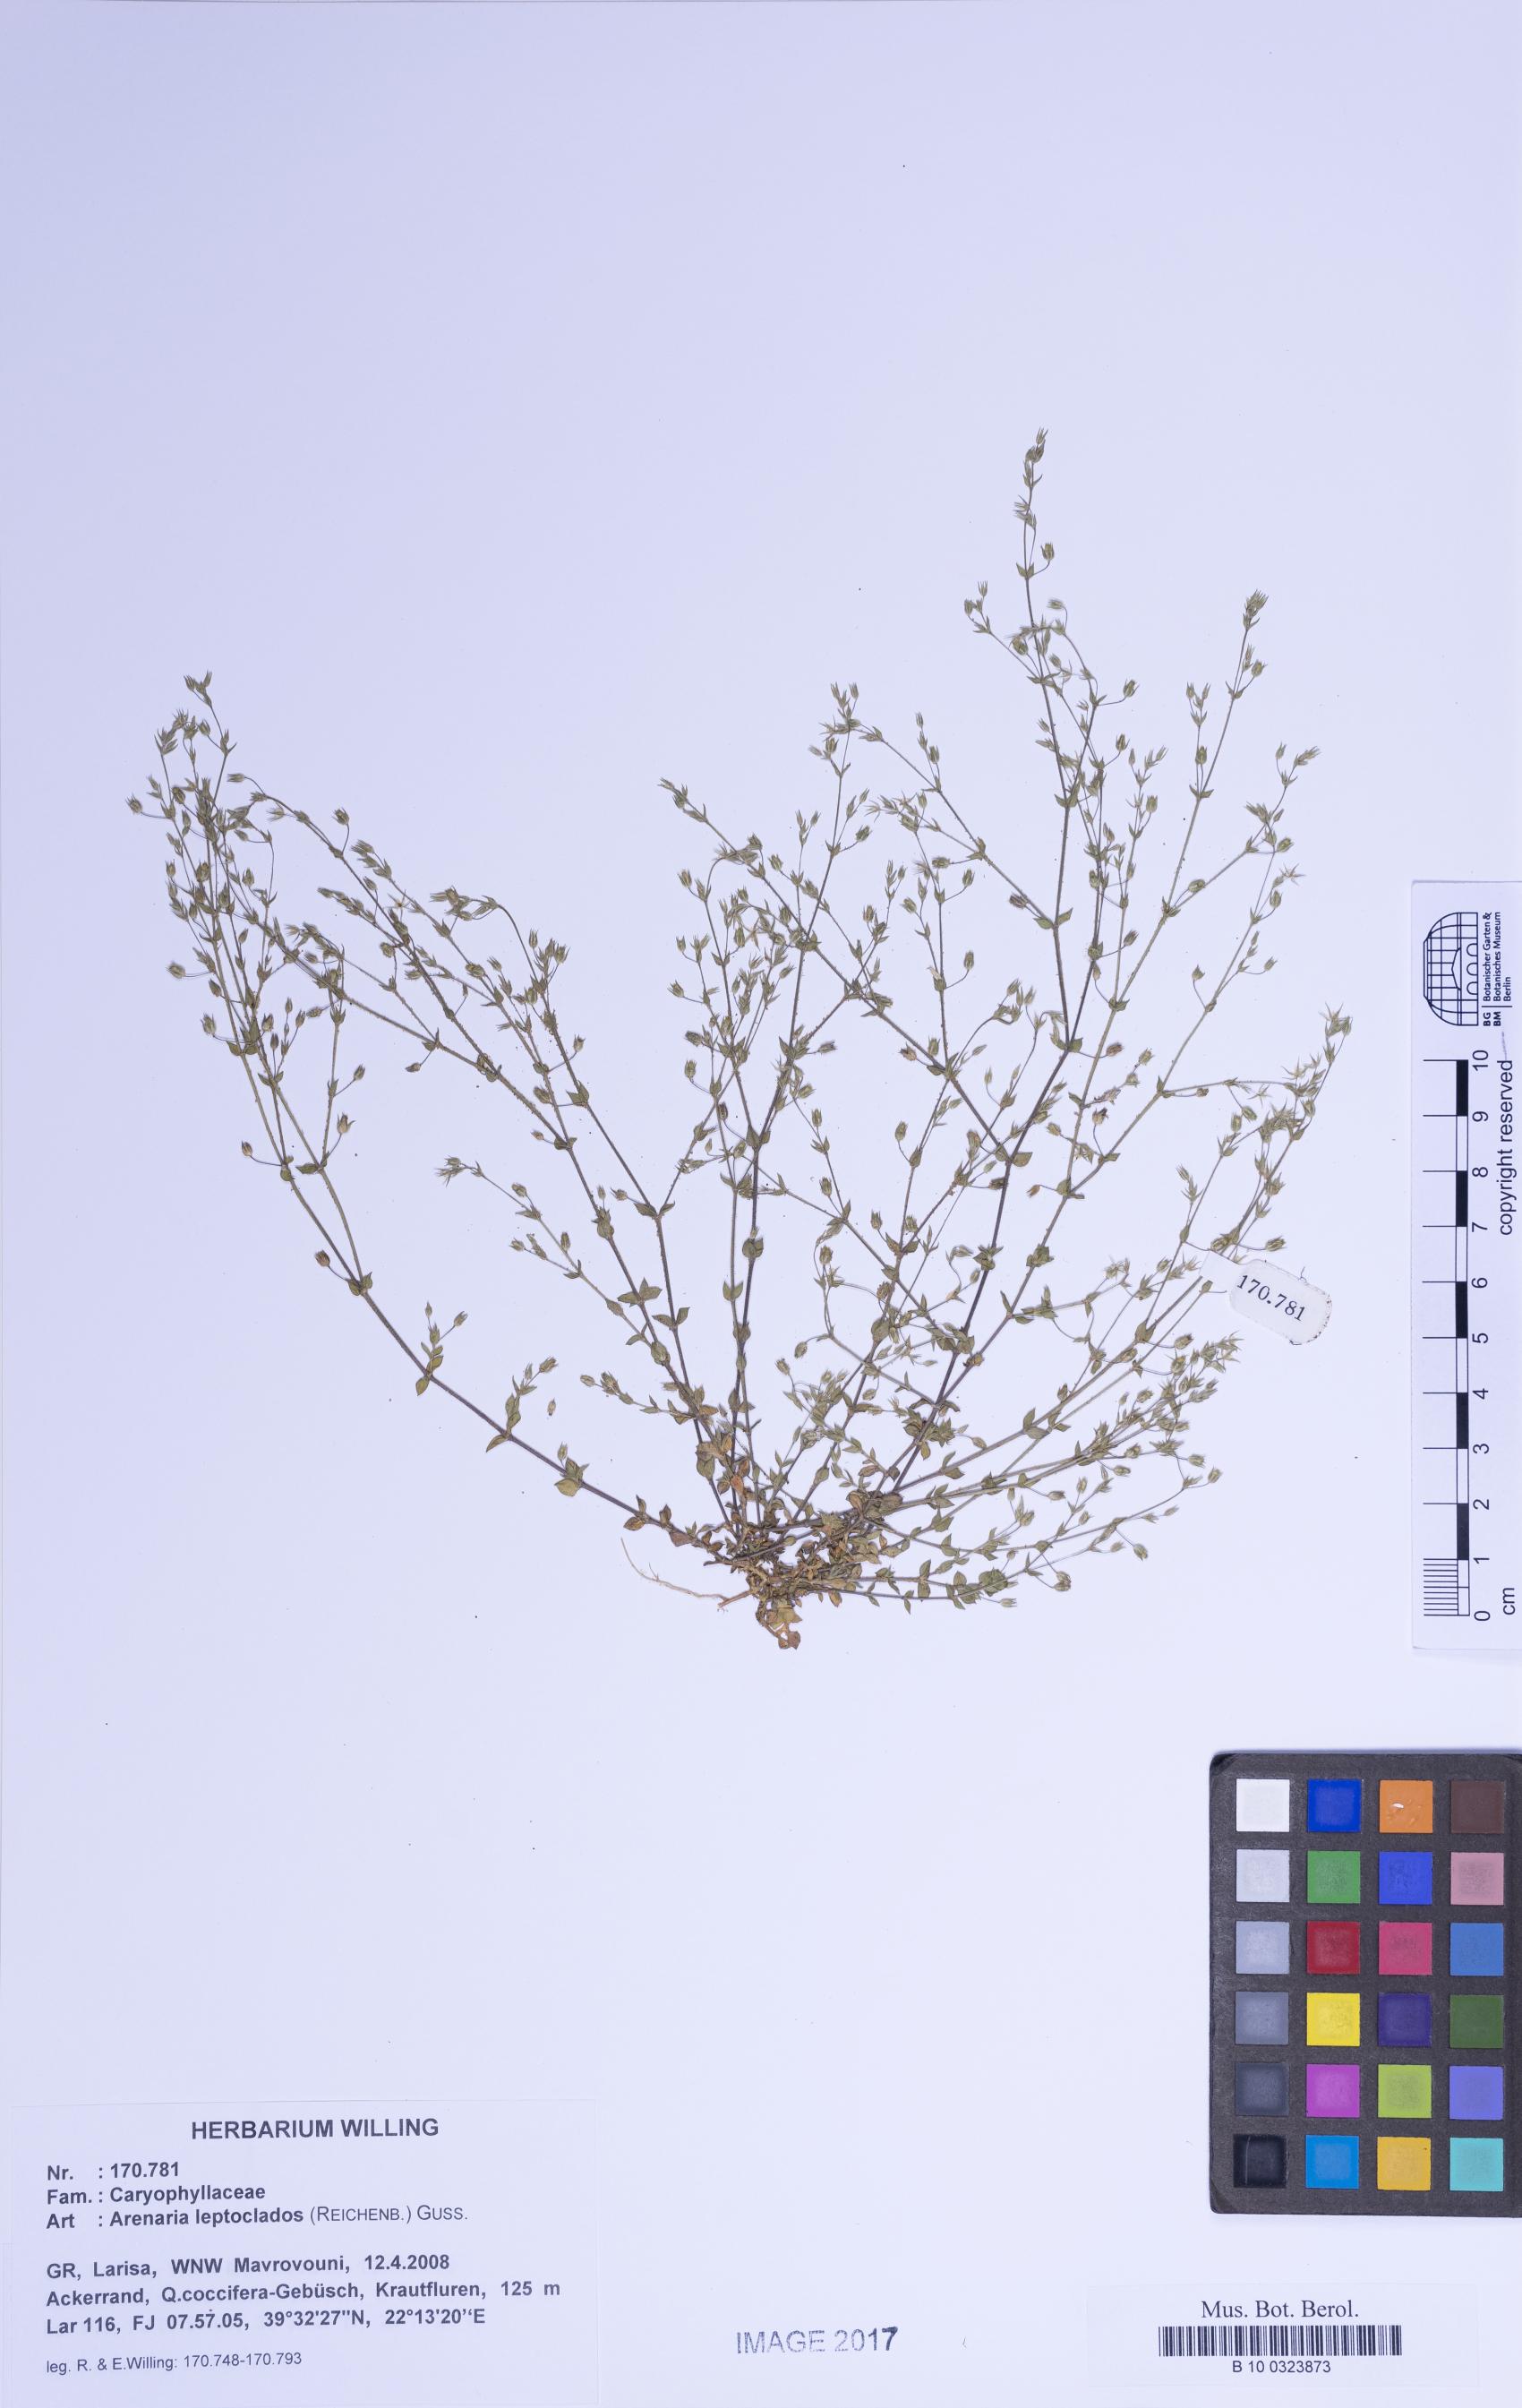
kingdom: Plantae
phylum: Tracheophyta
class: Magnoliopsida
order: Caryophyllales
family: Caryophyllaceae
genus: Arenaria
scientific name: Arenaria leptoclados
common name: Thyme-leaved sandwort
